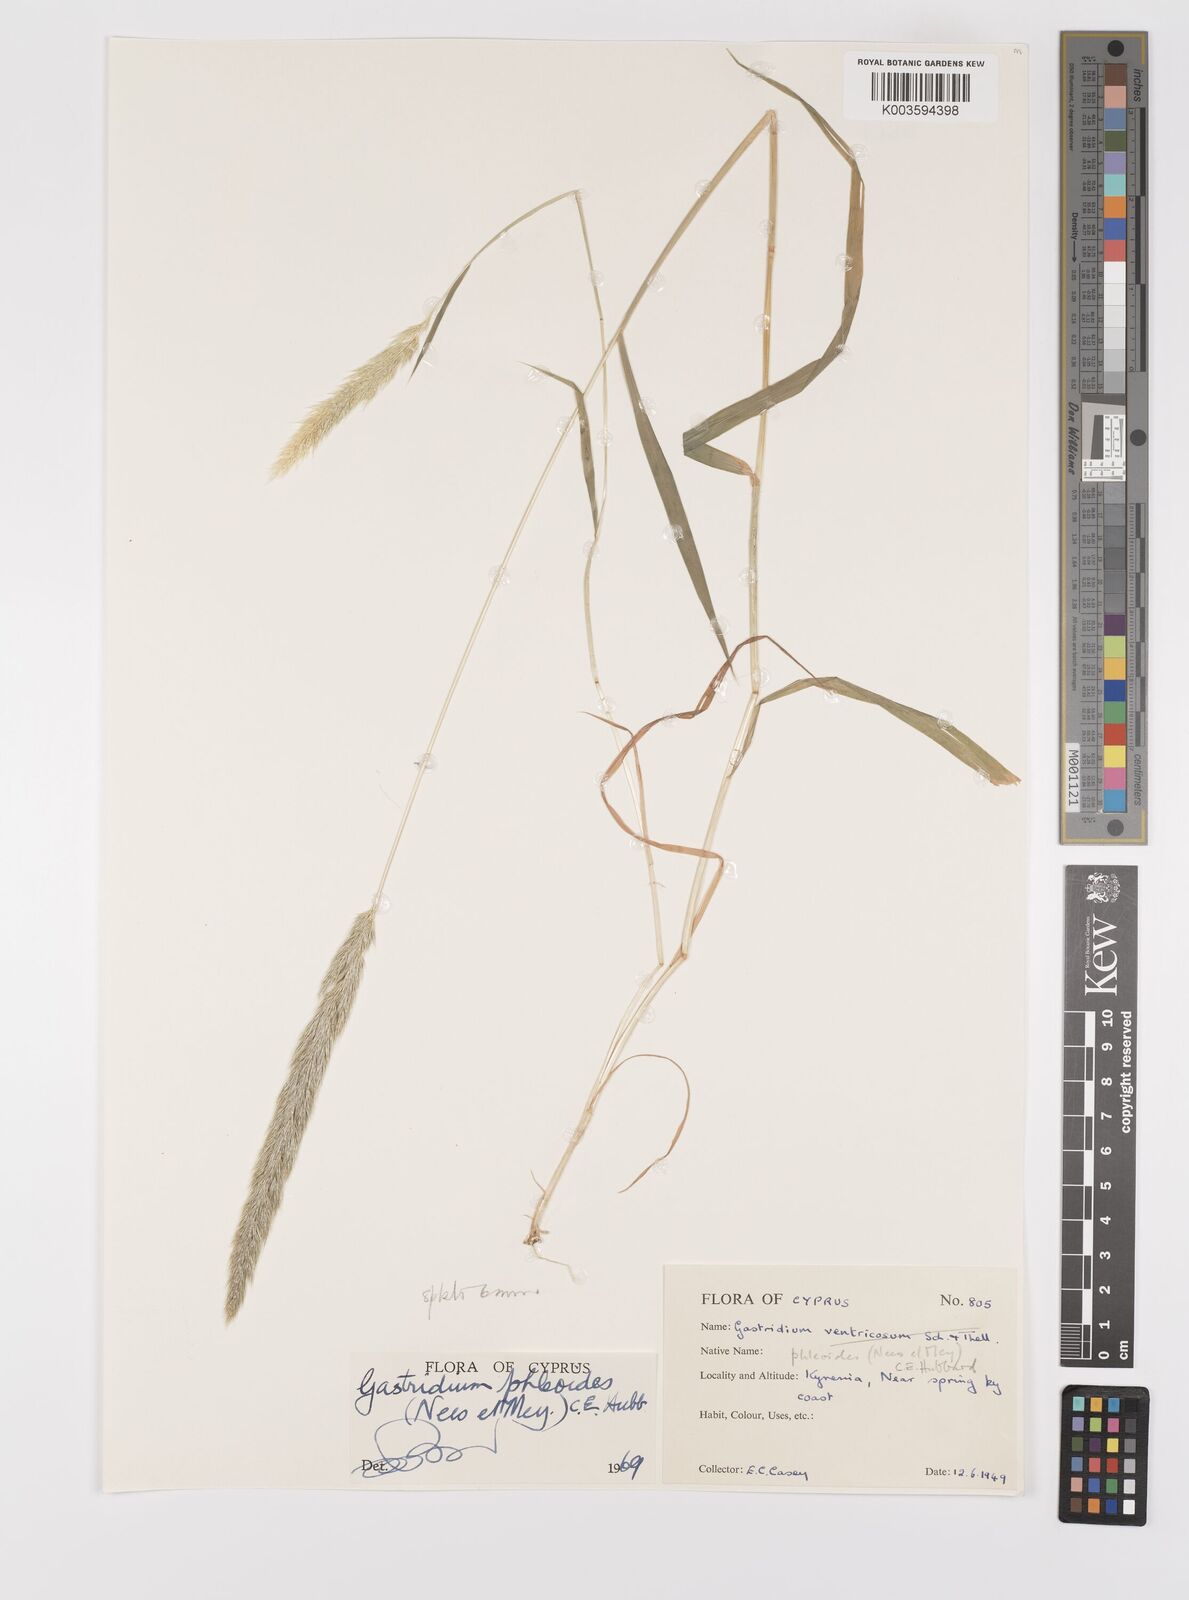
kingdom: Plantae
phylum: Tracheophyta
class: Liliopsida
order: Poales
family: Poaceae
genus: Gastridium
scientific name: Gastridium phleoides
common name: Nit grass
